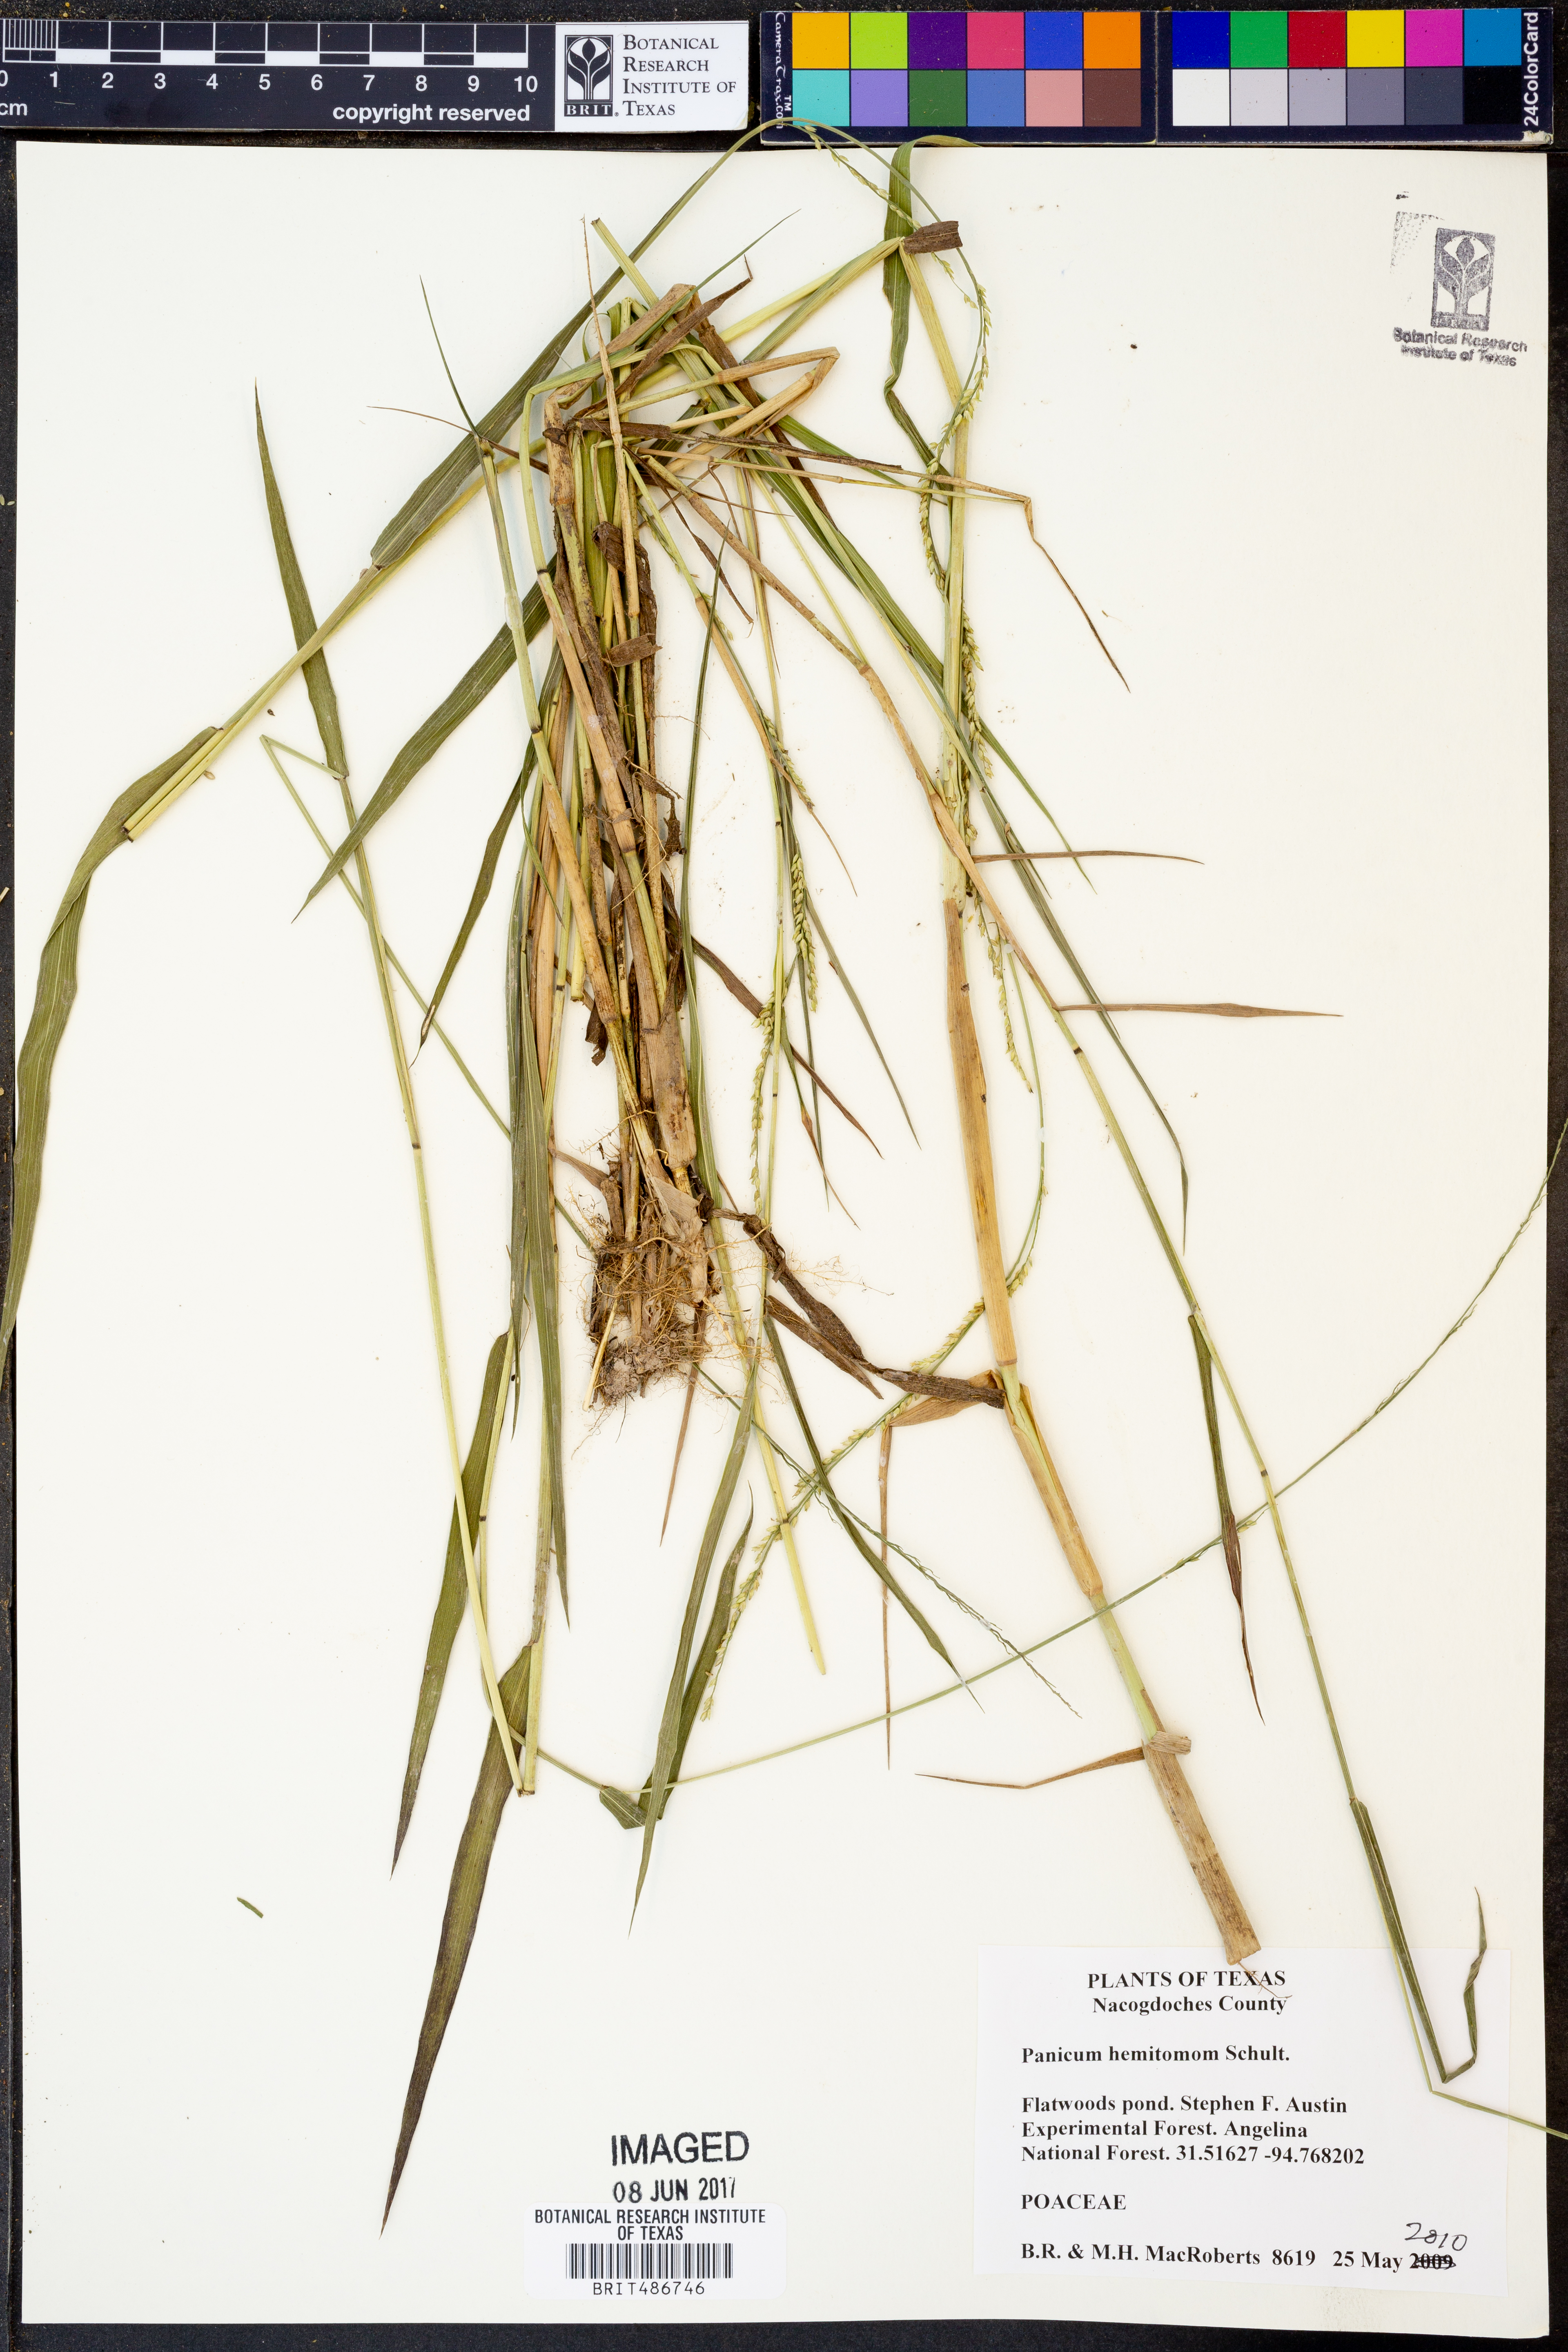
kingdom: Plantae
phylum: Tracheophyta
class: Liliopsida
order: Poales
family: Poaceae
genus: Panicum
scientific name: Panicum hemitomon
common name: Maidencane
